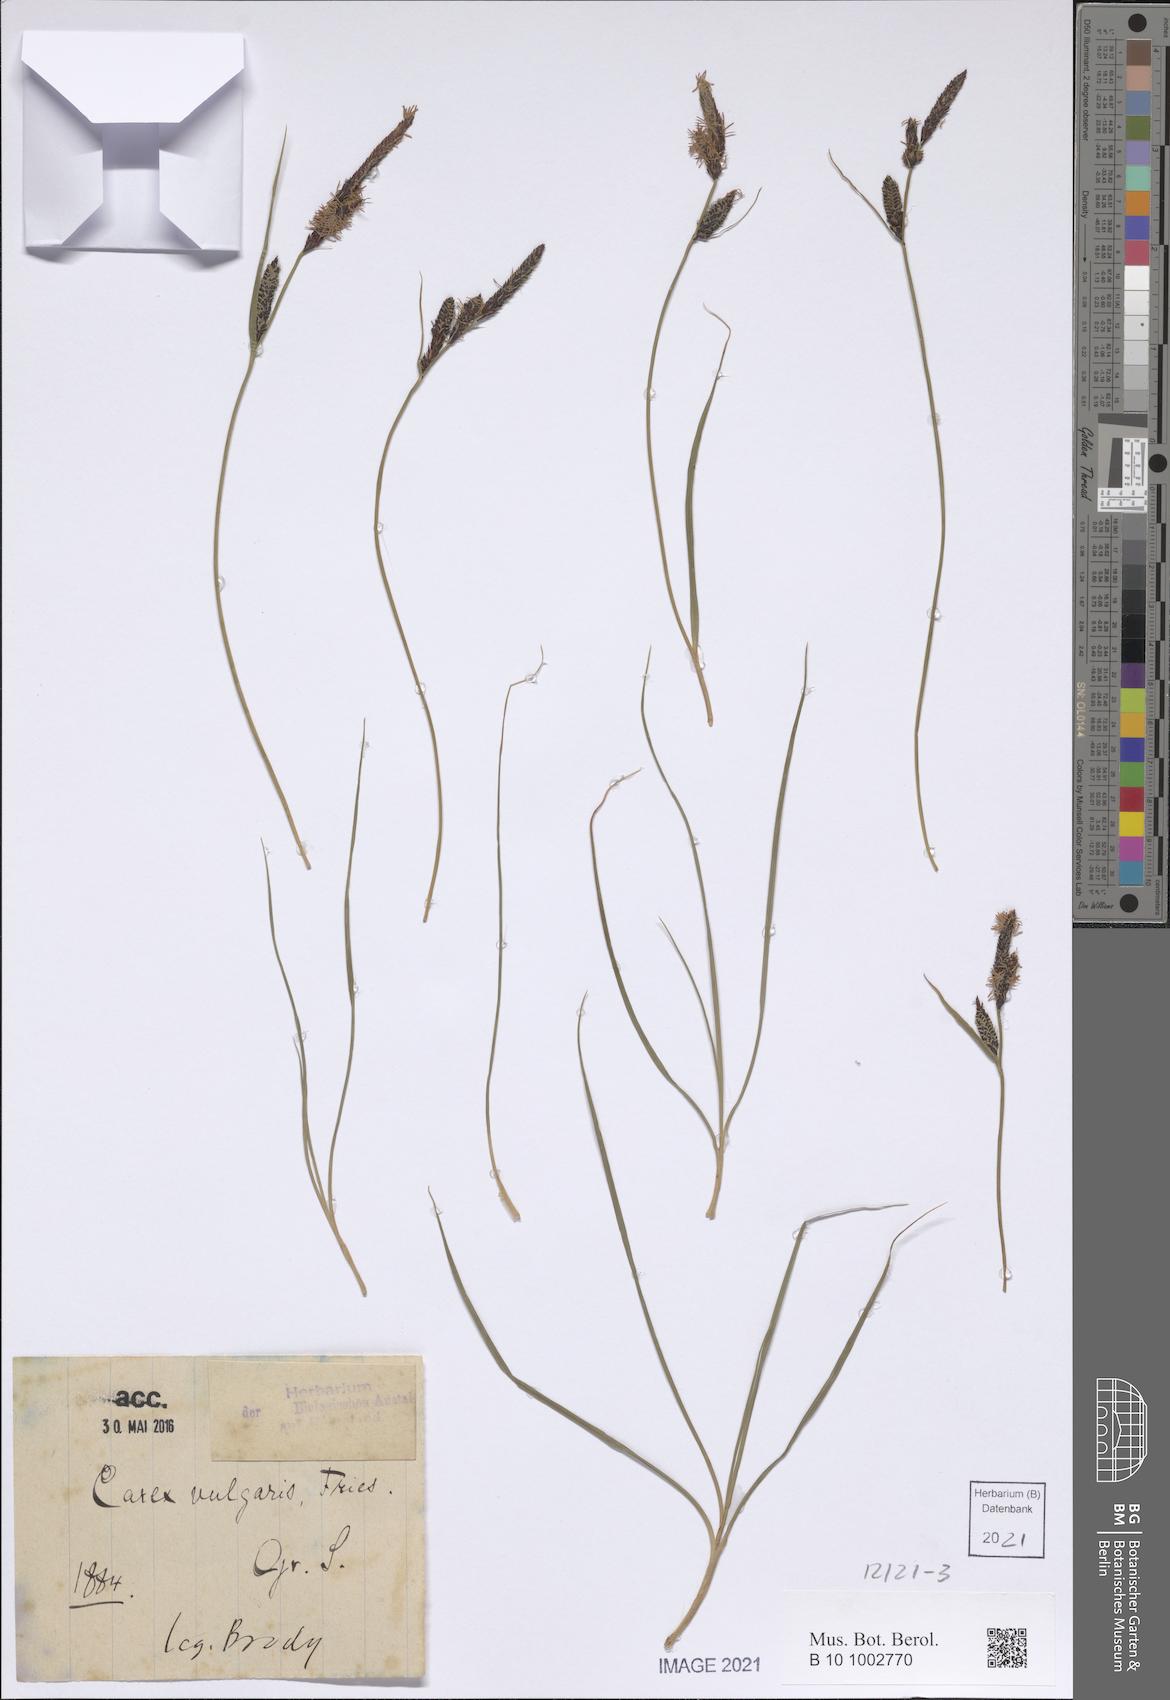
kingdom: Plantae
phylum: Tracheophyta
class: Liliopsida
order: Poales
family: Cyperaceae
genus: Carex
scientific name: Carex nigra
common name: Common sedge
